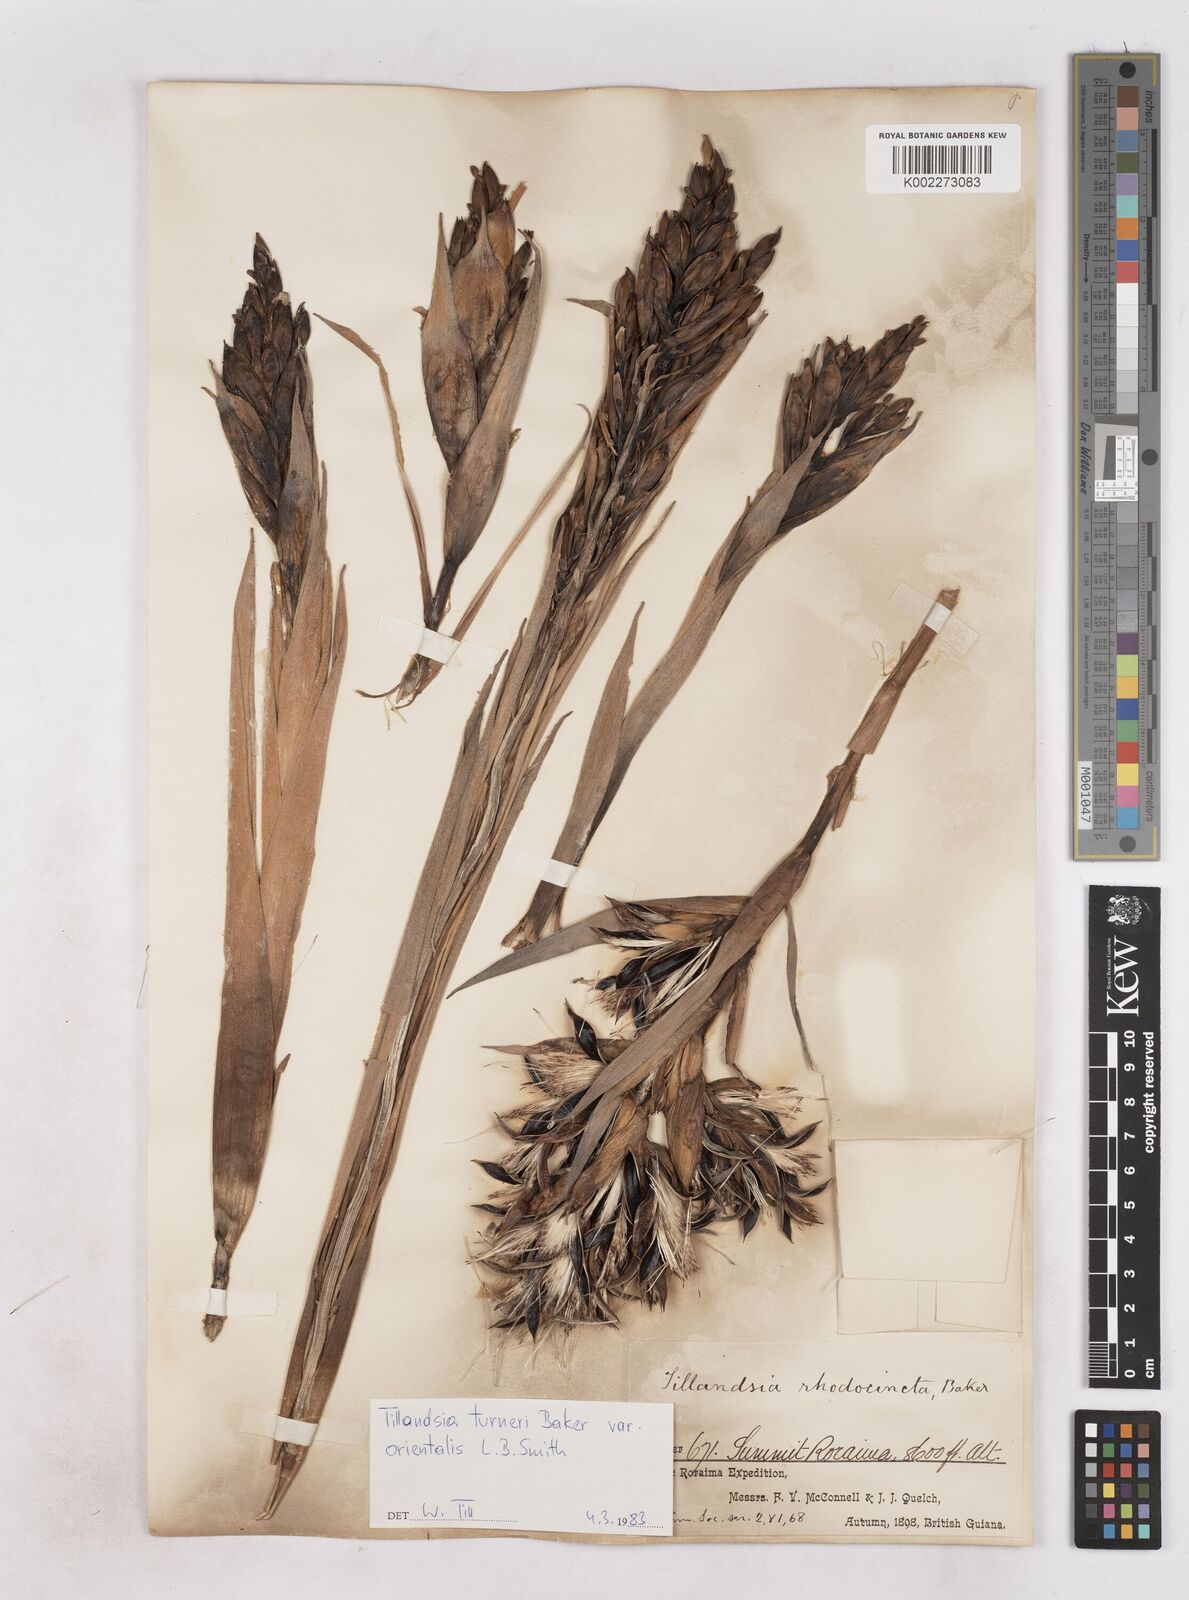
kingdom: Plantae
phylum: Tracheophyta
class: Liliopsida
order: Poales
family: Bromeliaceae
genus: Tillandsia
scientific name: Tillandsia turneri
